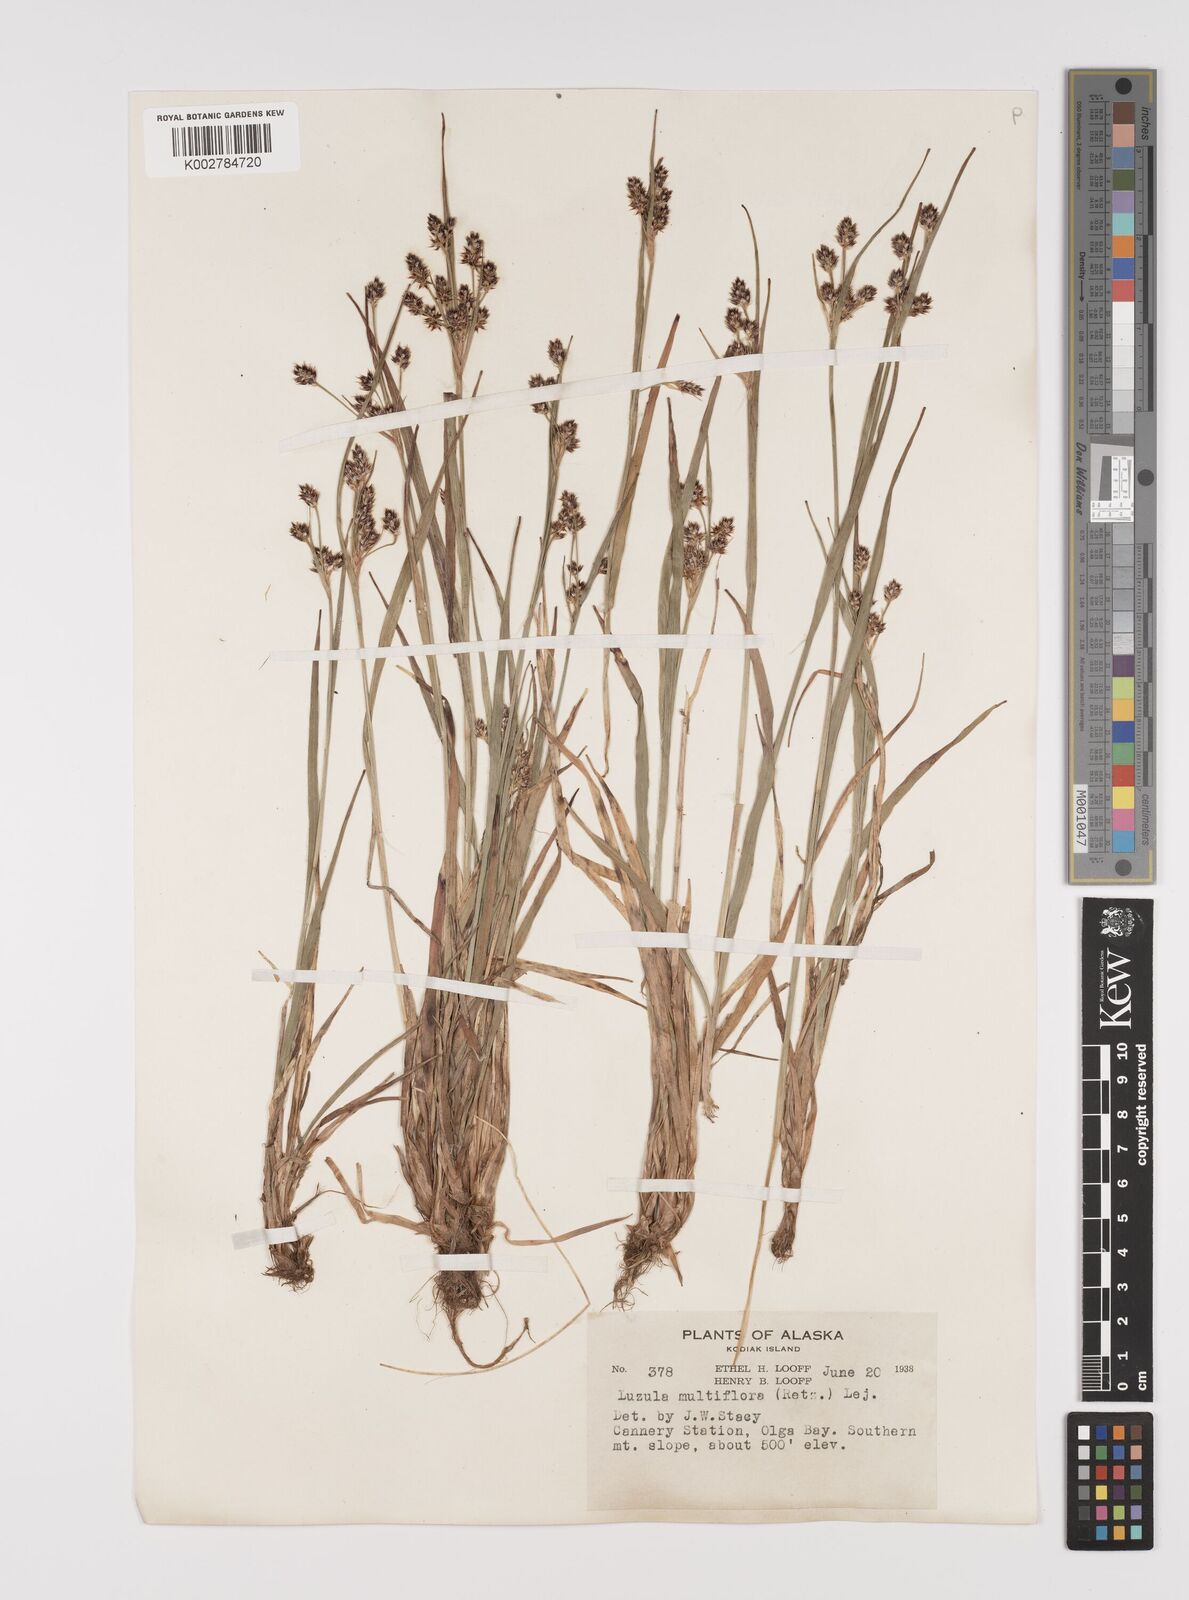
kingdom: Plantae
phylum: Tracheophyta
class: Liliopsida
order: Poales
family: Juncaceae
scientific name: Juncaceae
